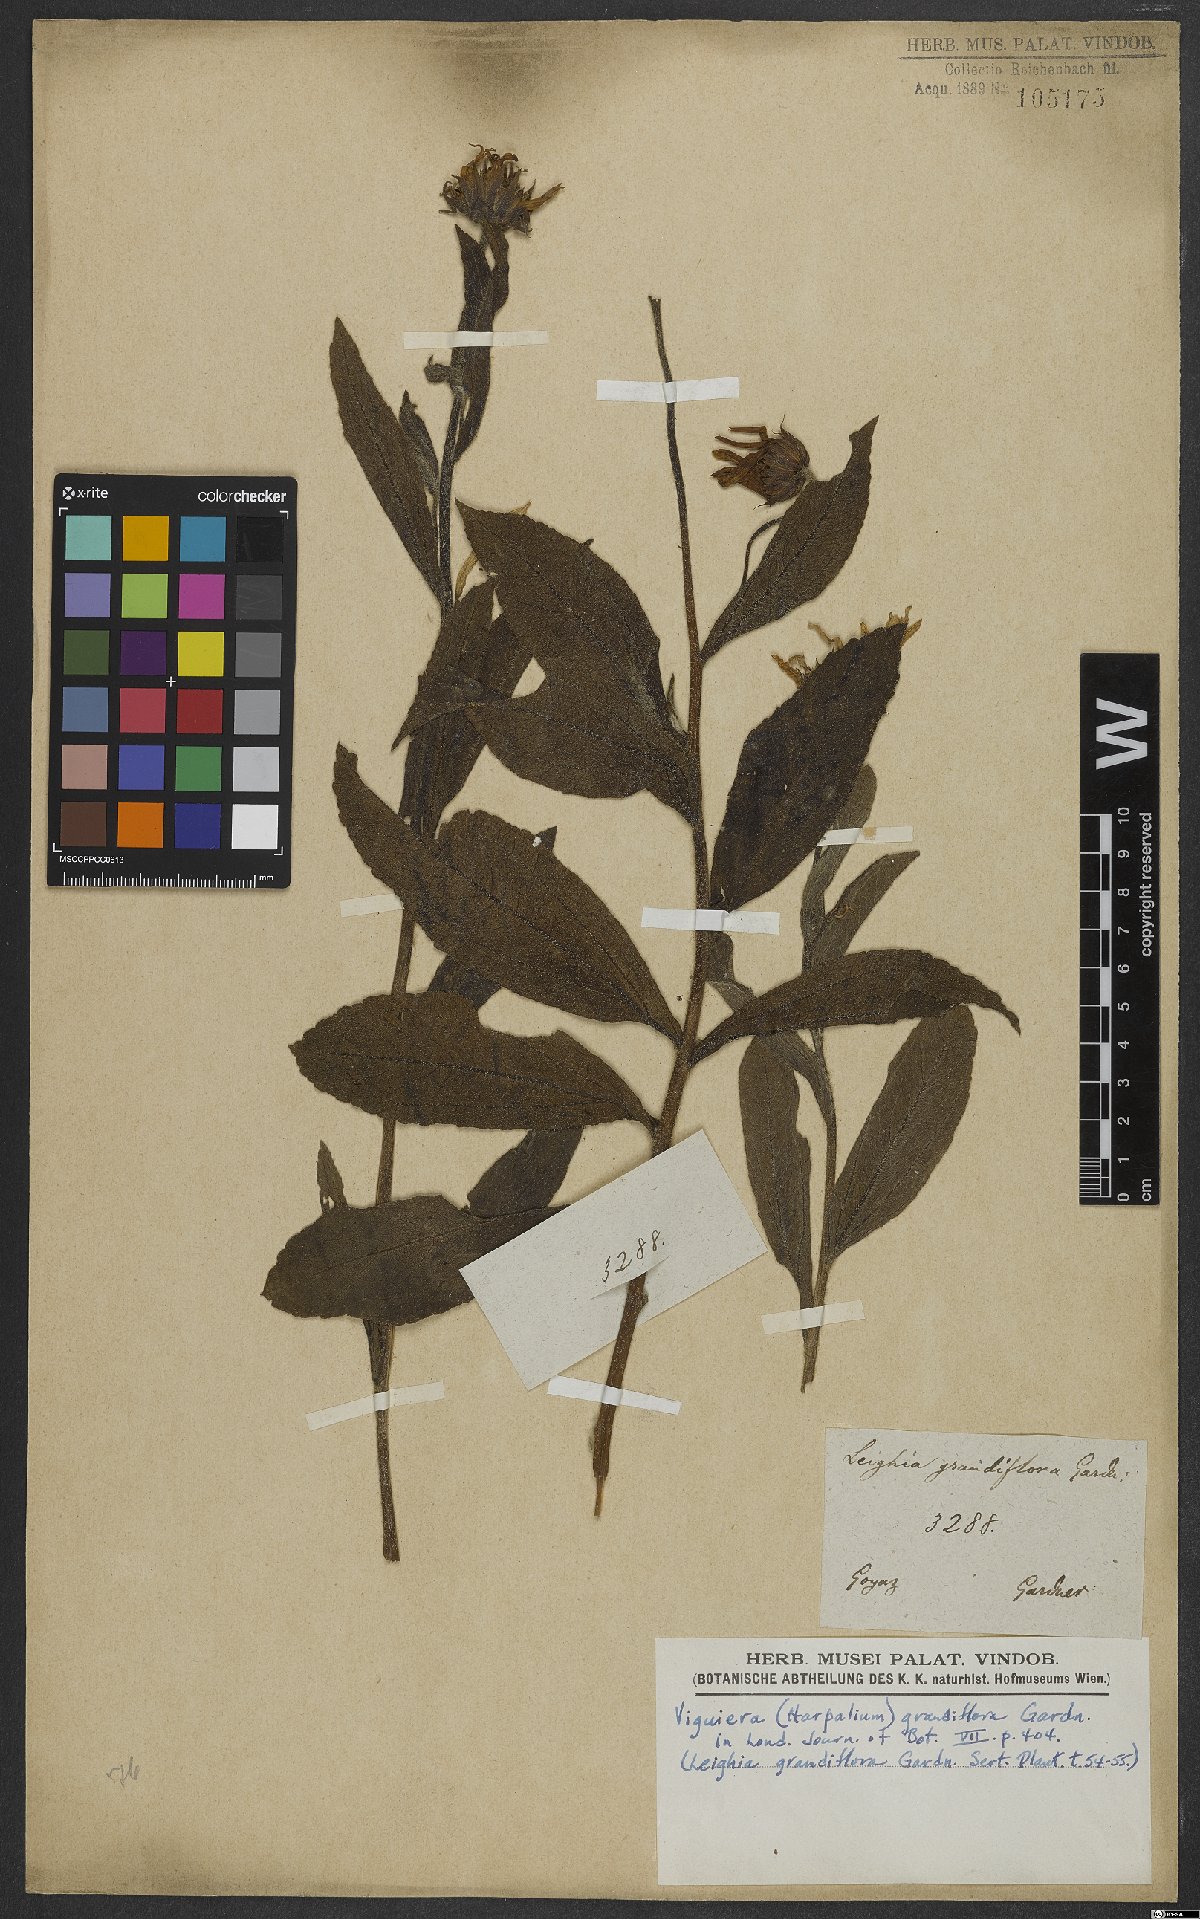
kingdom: Plantae
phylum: Tracheophyta
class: Magnoliopsida
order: Asterales
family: Asteraceae
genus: Aldama
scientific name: Aldama grandiflora
